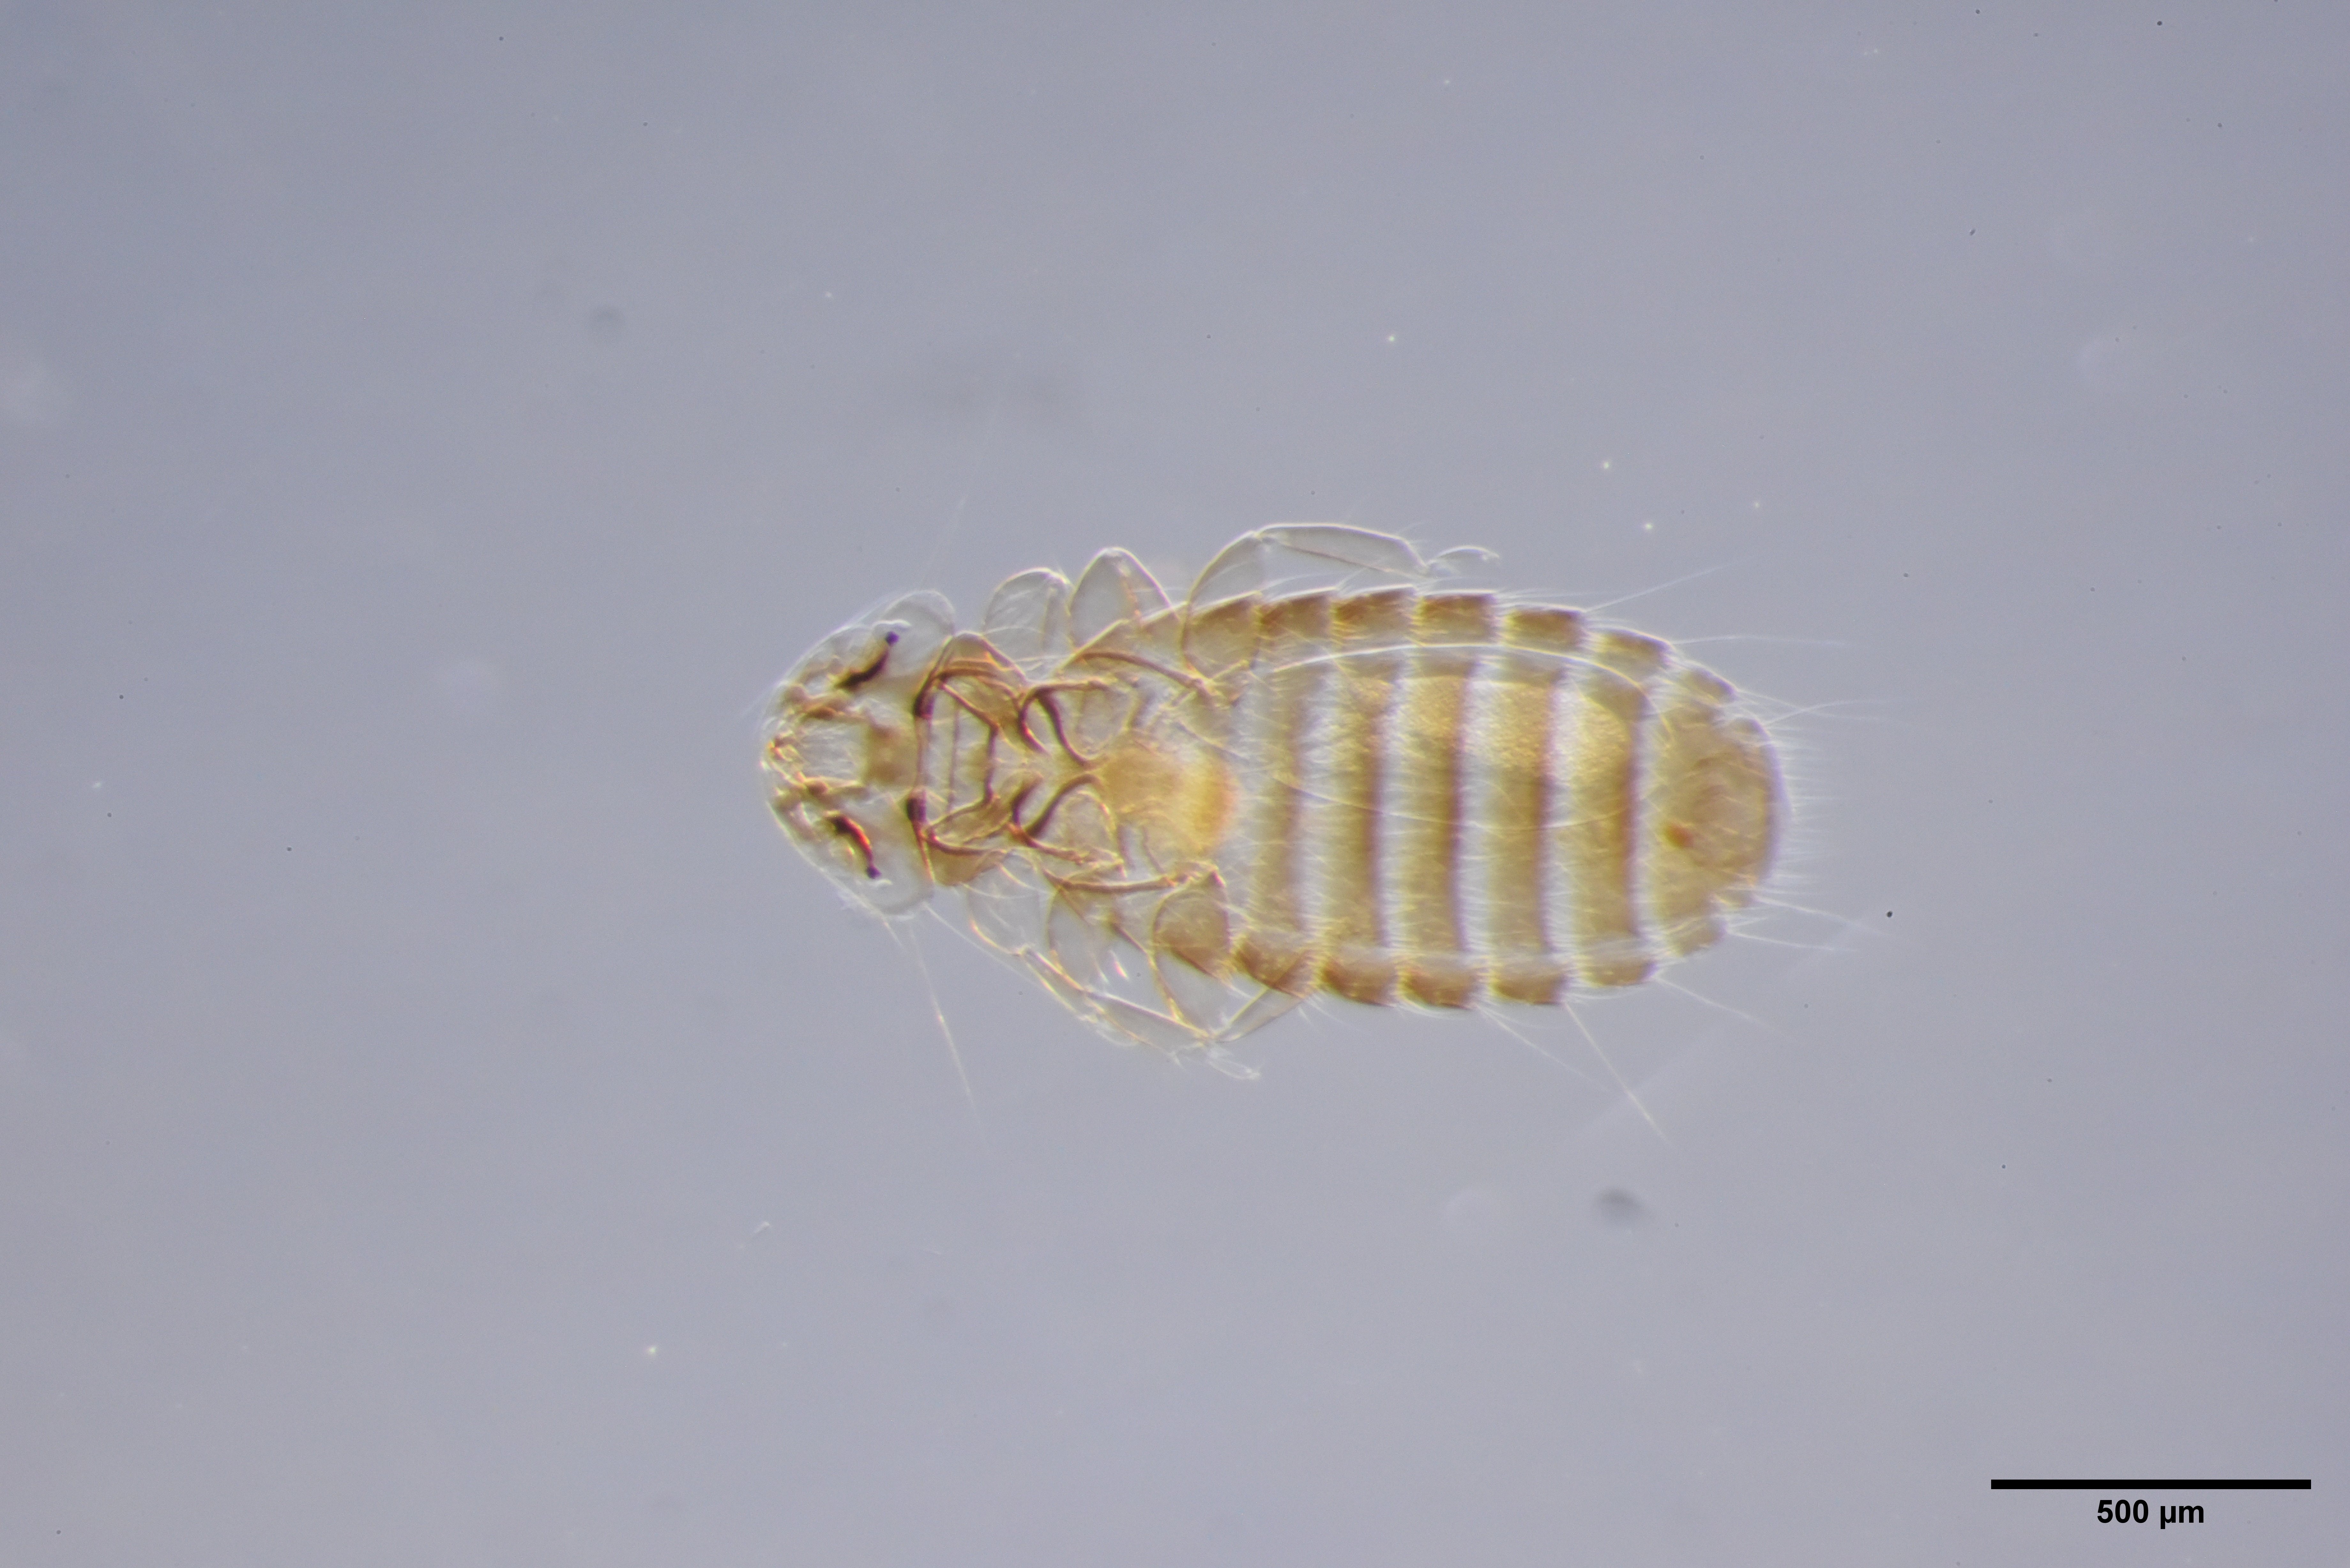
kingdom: Animalia
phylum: Arthropoda
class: Insecta
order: Psocodea
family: Menoponidae
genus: Menacanthus
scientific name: Menacanthus eurysternus
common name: Louse
